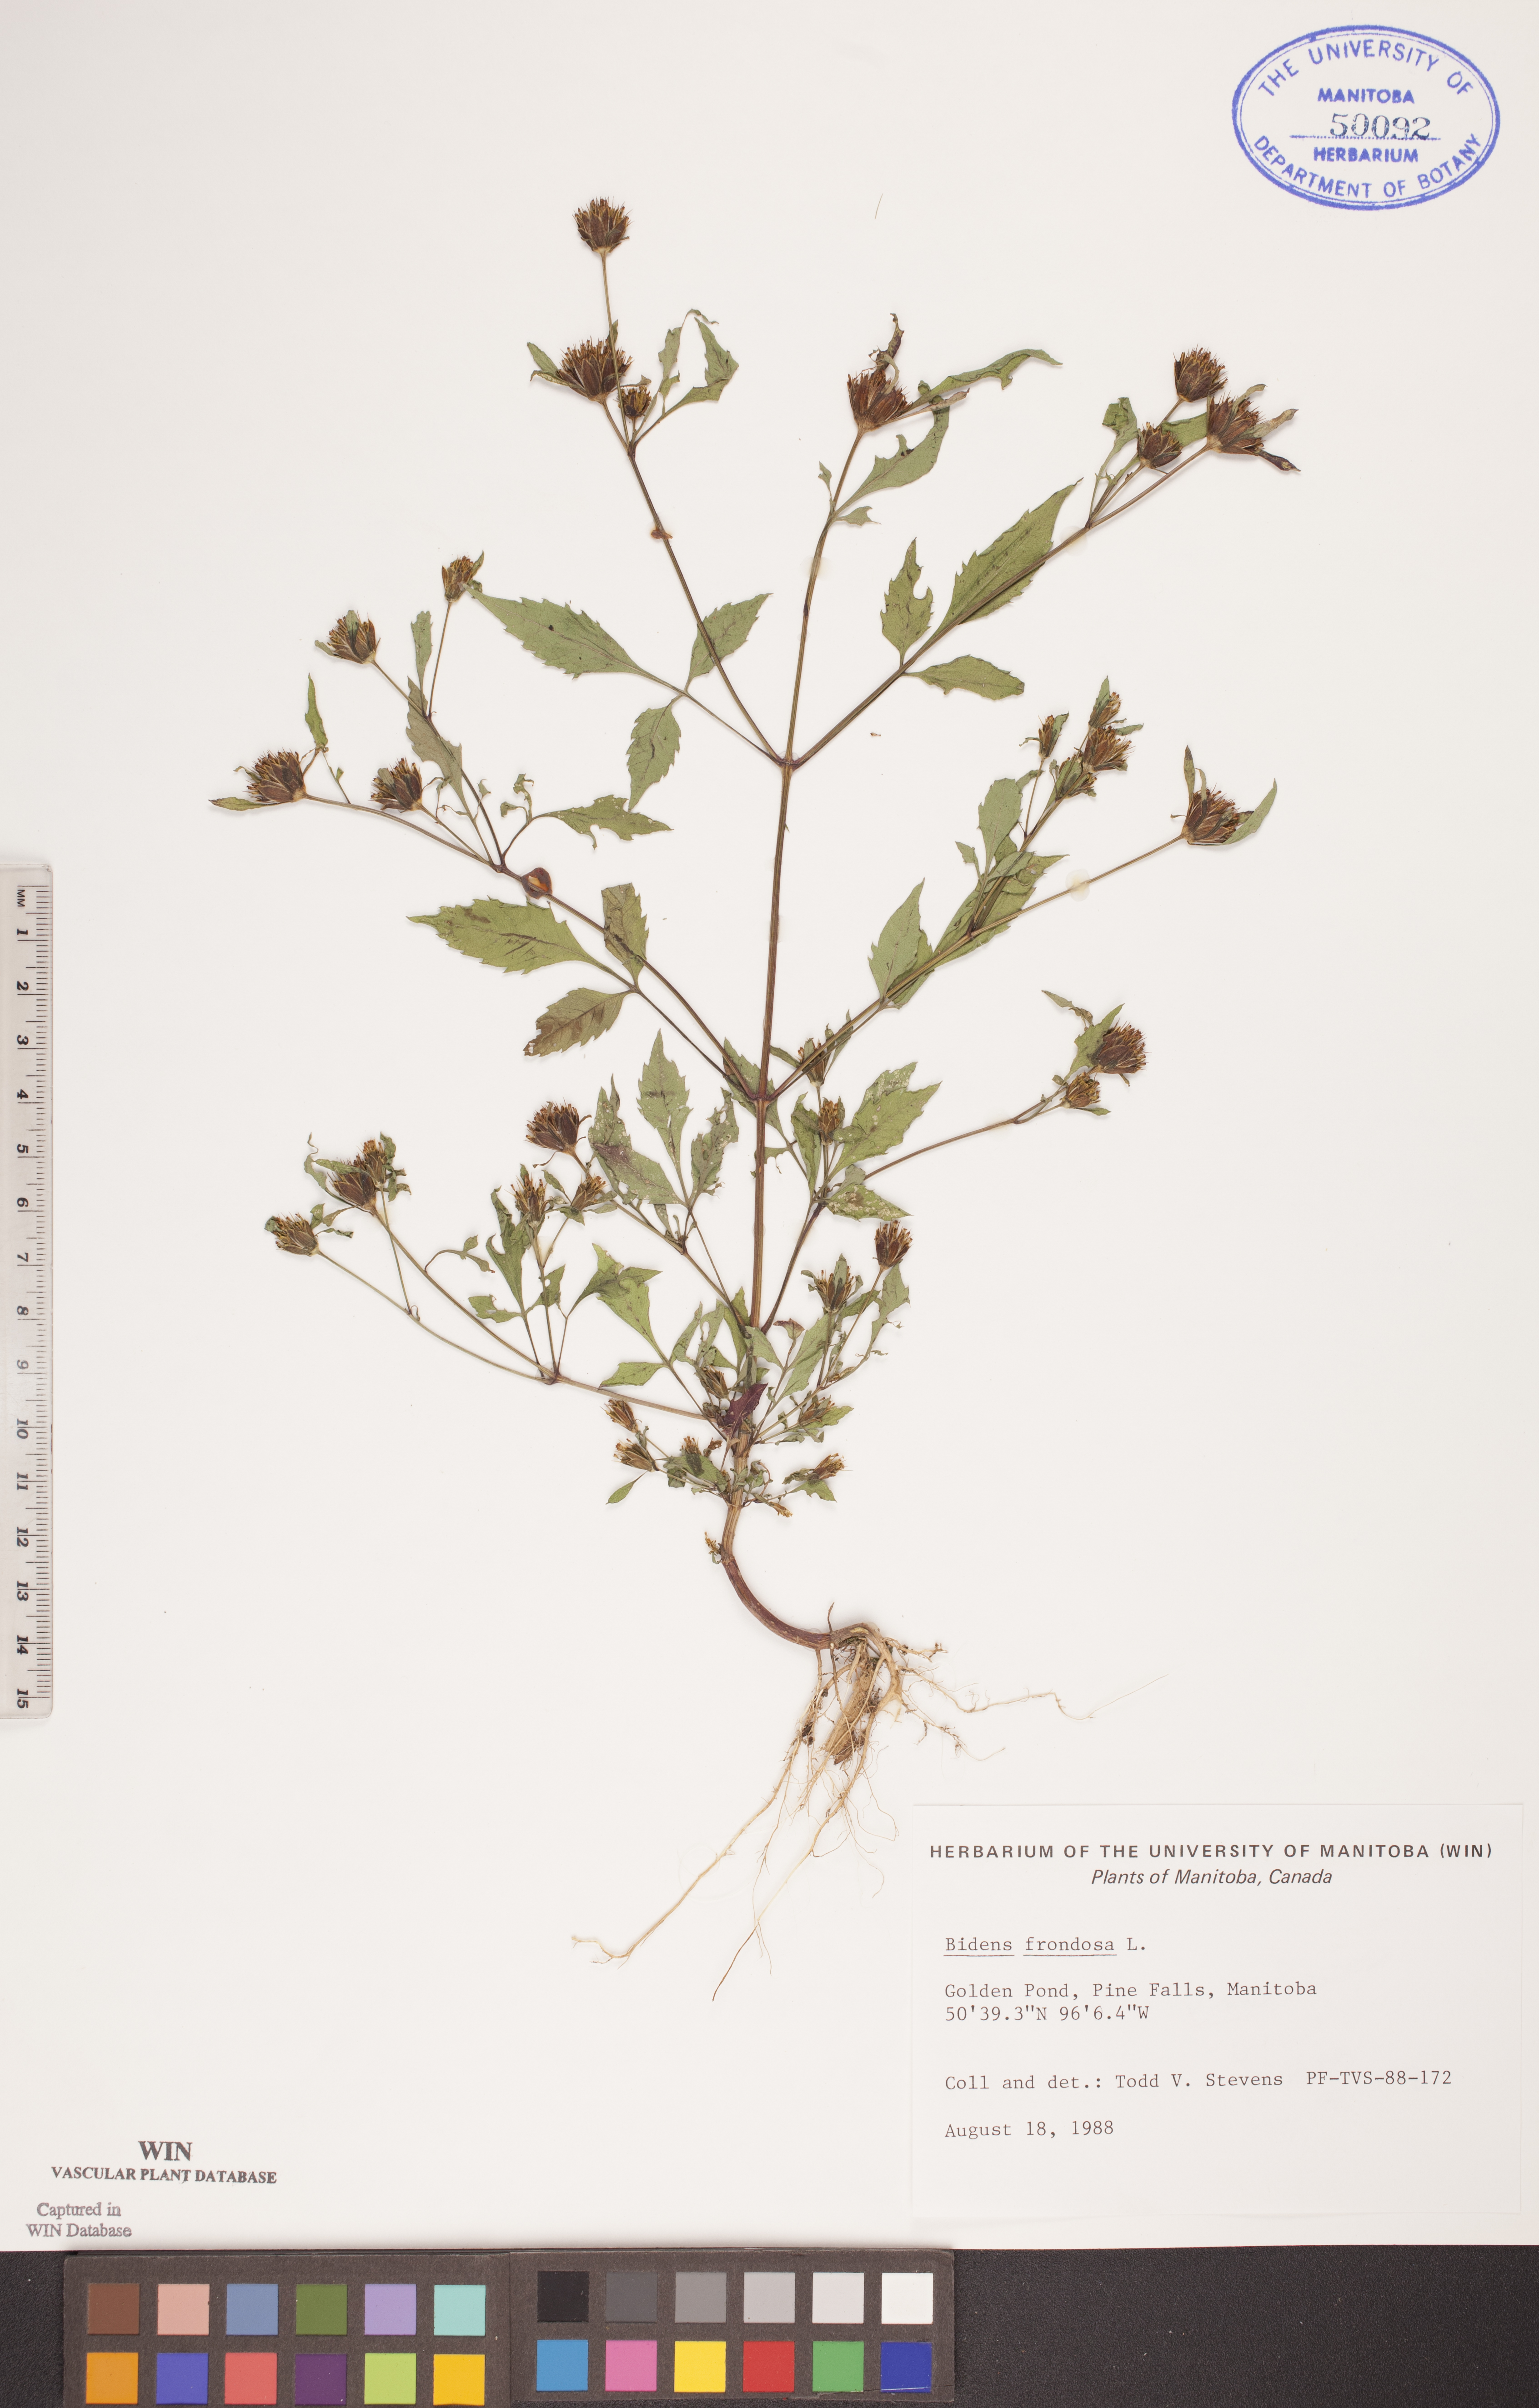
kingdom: Plantae
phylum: Tracheophyta
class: Magnoliopsida
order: Asterales
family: Asteraceae
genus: Bidens
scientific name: Bidens frondosa
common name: Beggarticks
